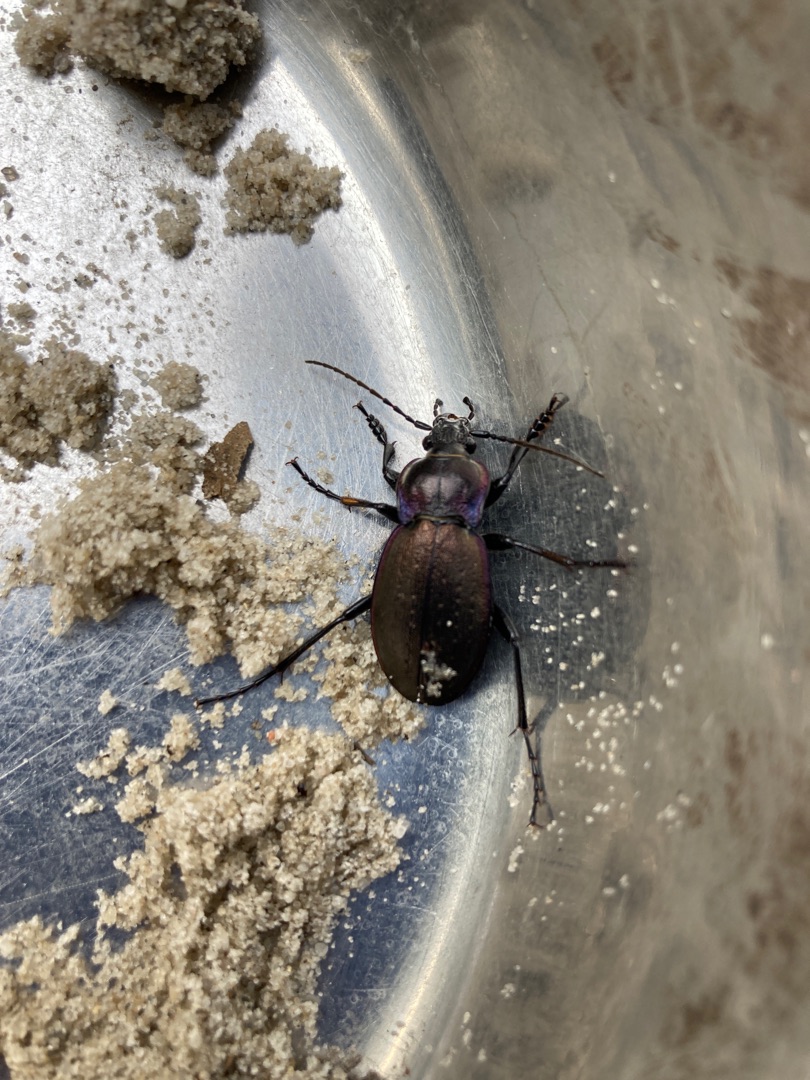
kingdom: Animalia
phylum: Arthropoda
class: Insecta
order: Coleoptera
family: Carabidae
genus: Carabus
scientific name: Carabus nemoralis
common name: Kratløber
